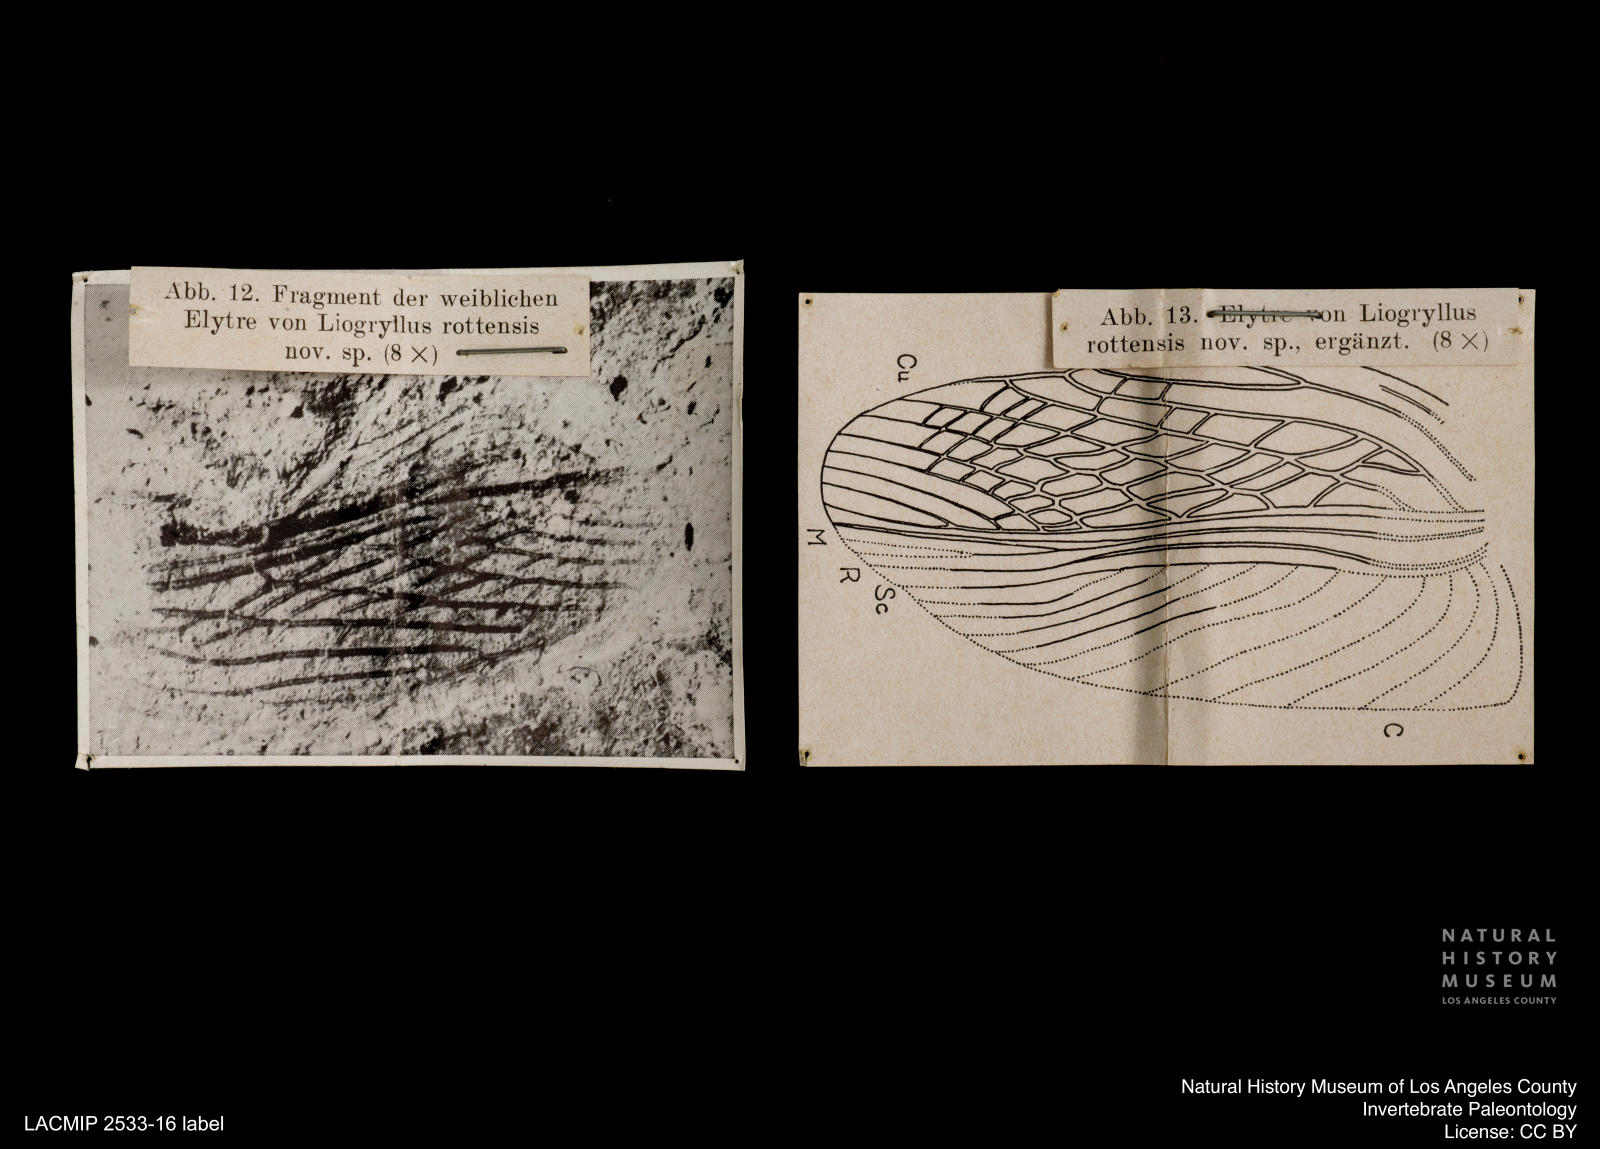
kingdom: Animalia
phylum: Arthropoda
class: Insecta
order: Orthoptera
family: Gryllidae
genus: Gryllus
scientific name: Gryllus Liogryllus rottensis
